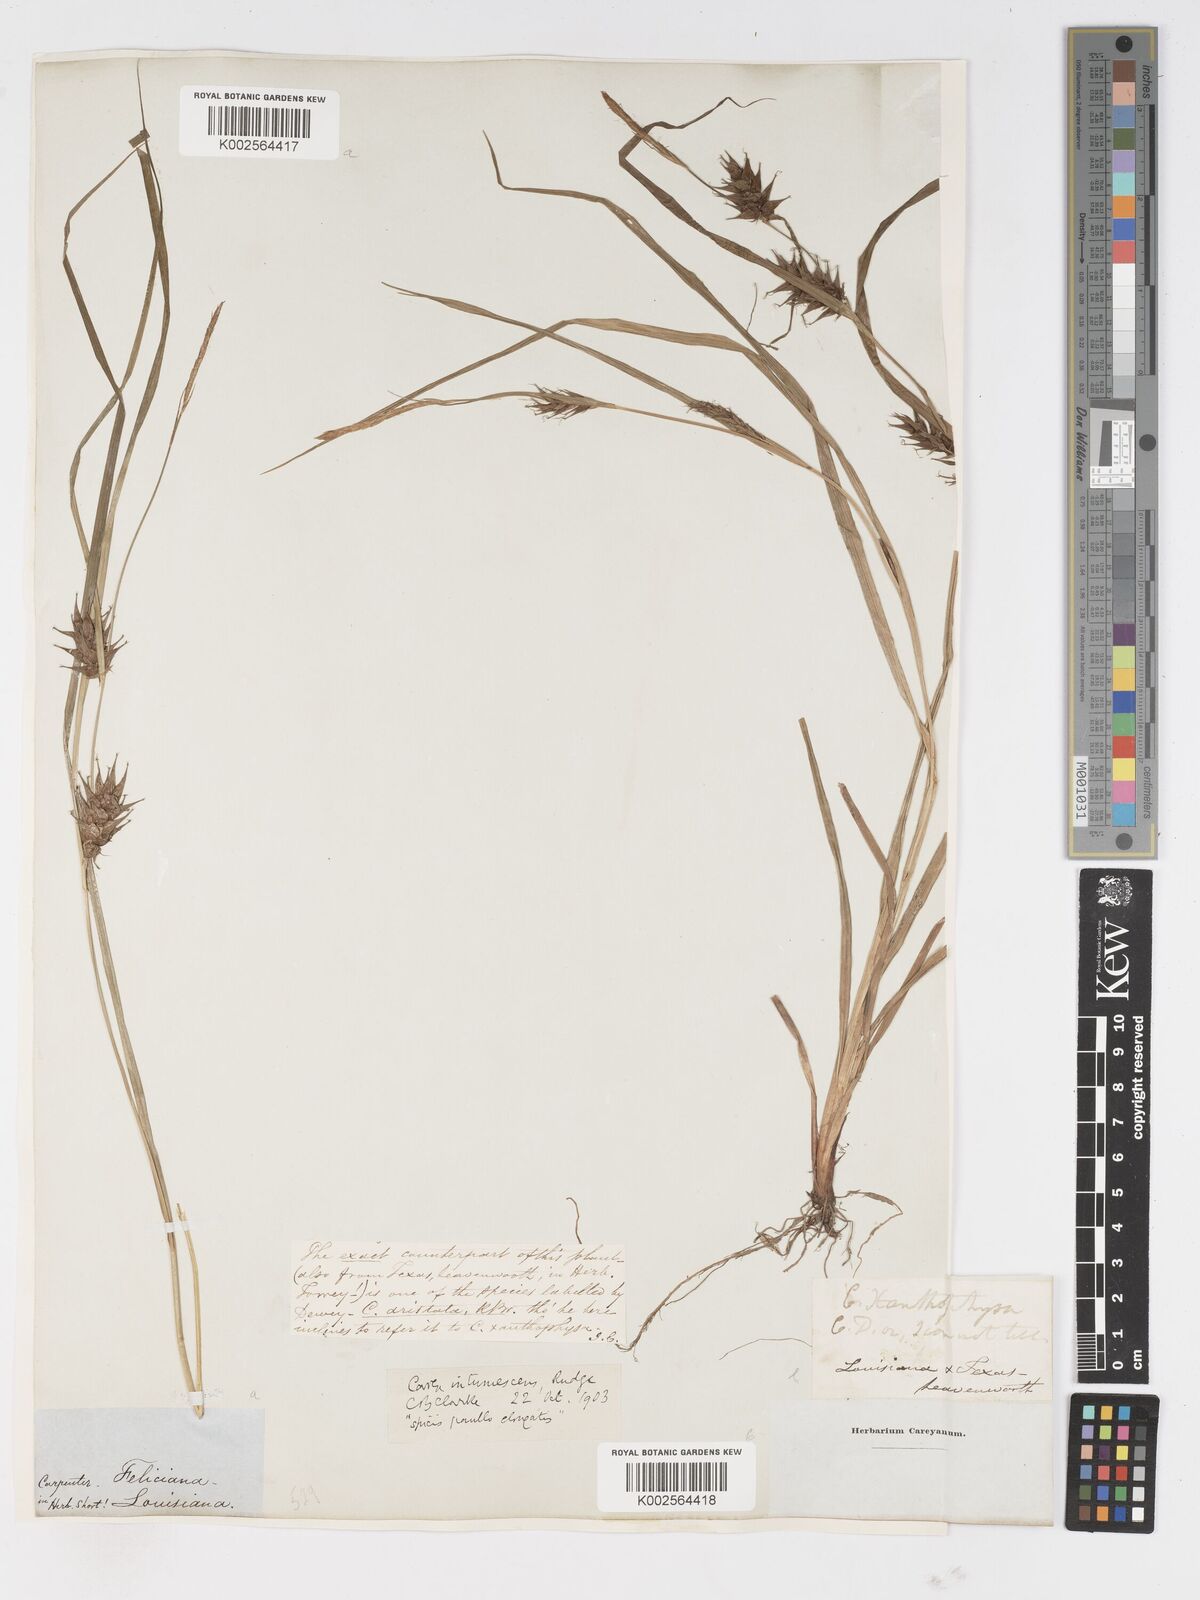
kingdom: Plantae
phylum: Tracheophyta
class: Liliopsida
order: Poales
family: Cyperaceae
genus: Carex
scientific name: Carex intumescens
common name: Greater bladder sedge
